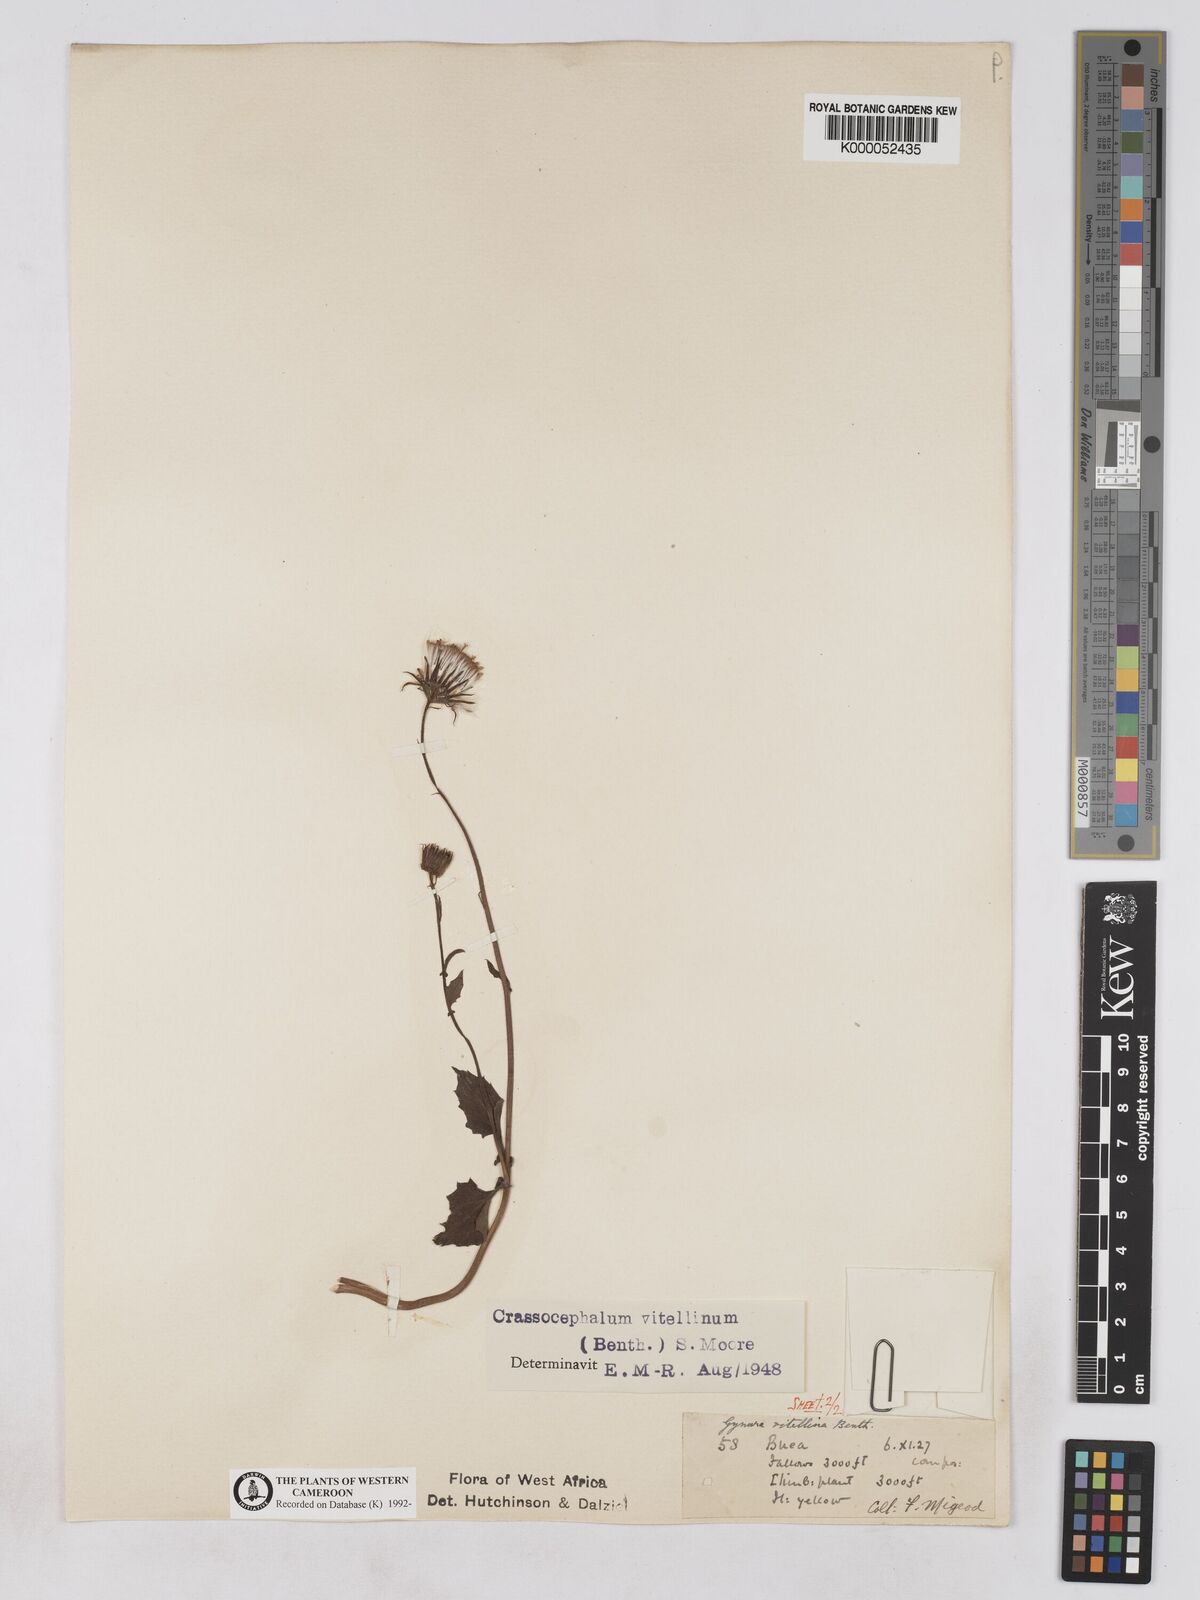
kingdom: Plantae
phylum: Tracheophyta
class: Magnoliopsida
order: Asterales
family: Asteraceae
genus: Crassocephalum
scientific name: Crassocephalum vitellinum
